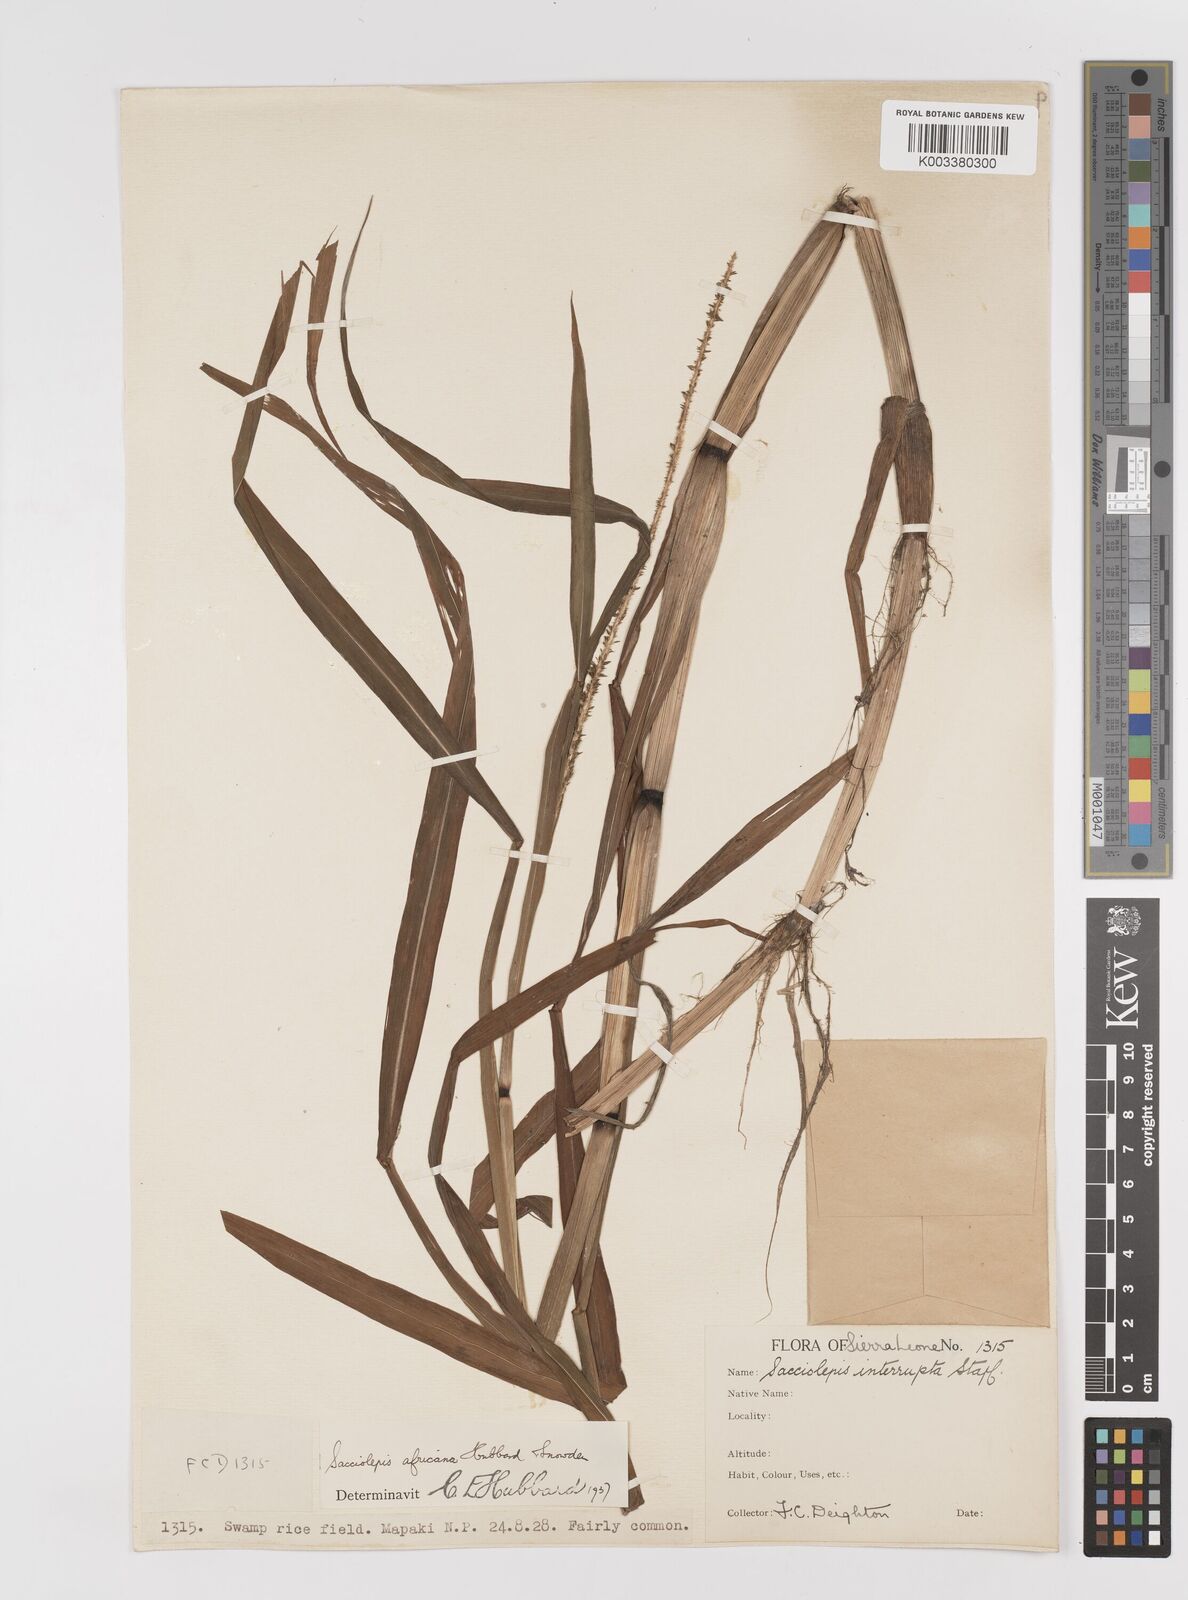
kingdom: Plantae
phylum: Tracheophyta
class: Liliopsida
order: Poales
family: Poaceae
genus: Sacciolepis
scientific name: Sacciolepis africana
